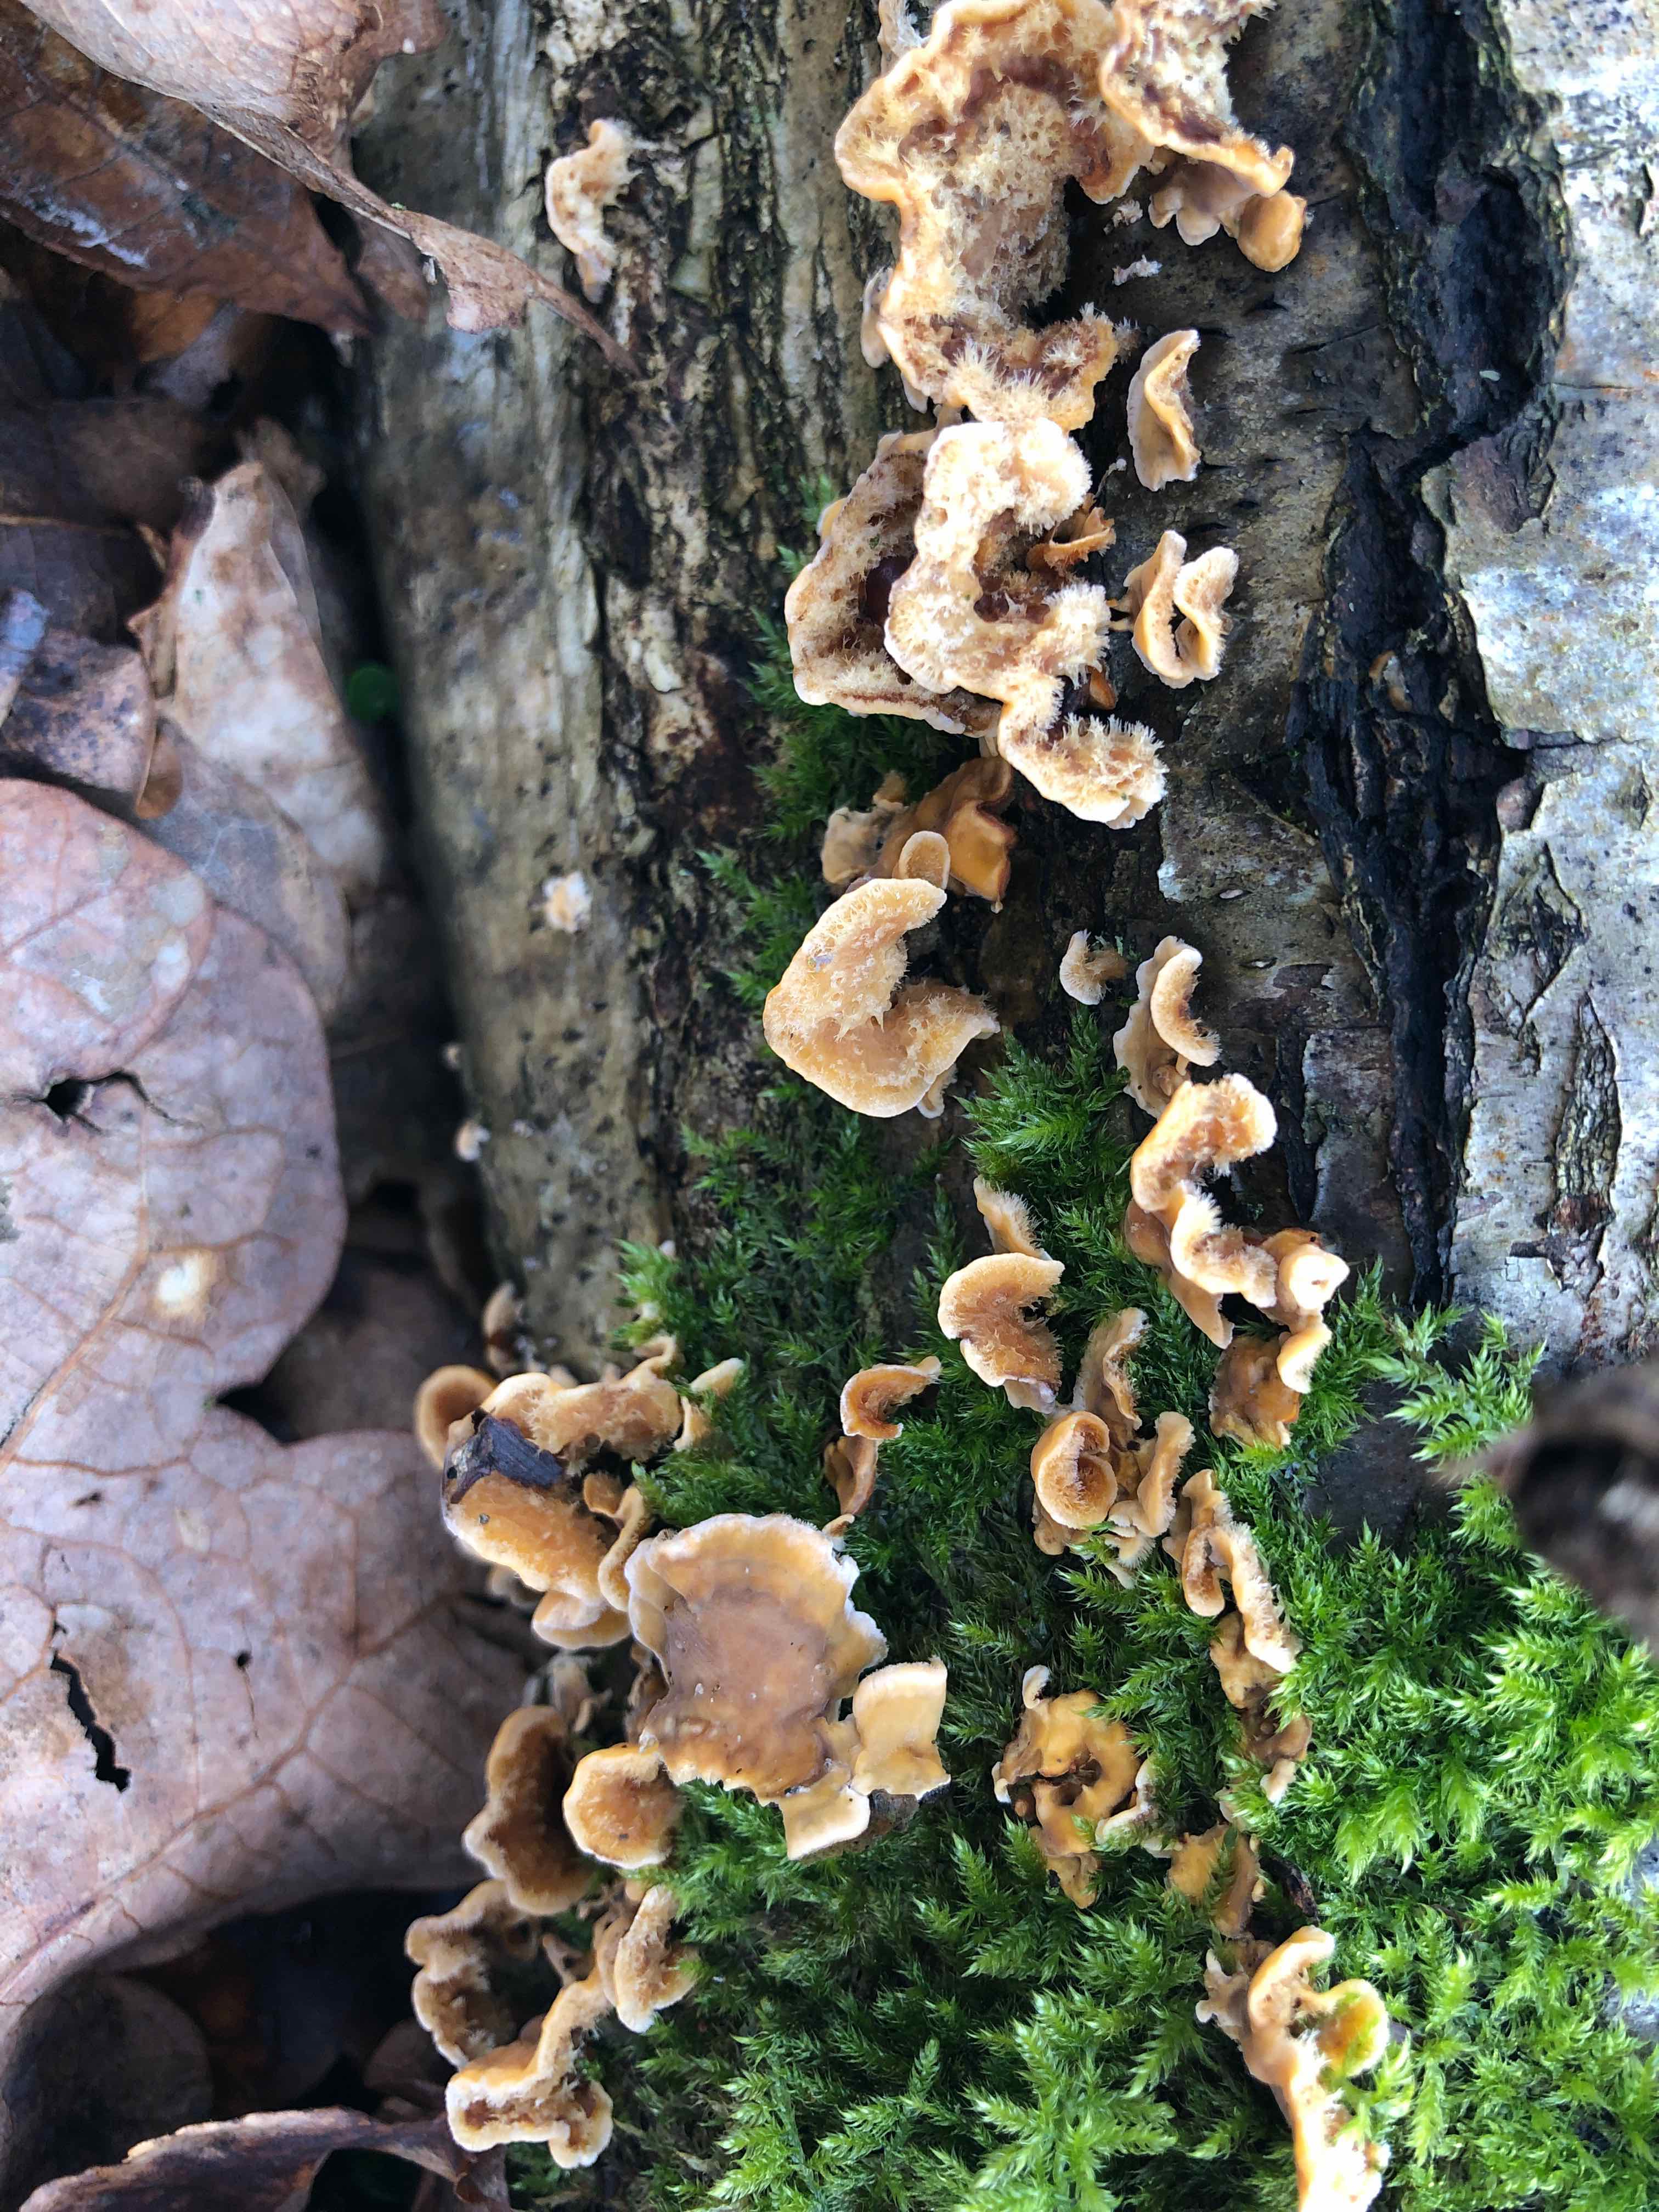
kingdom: Fungi
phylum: Basidiomycota
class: Agaricomycetes
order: Russulales
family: Stereaceae
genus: Stereum
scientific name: Stereum hirsutum
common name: håret lædersvamp
